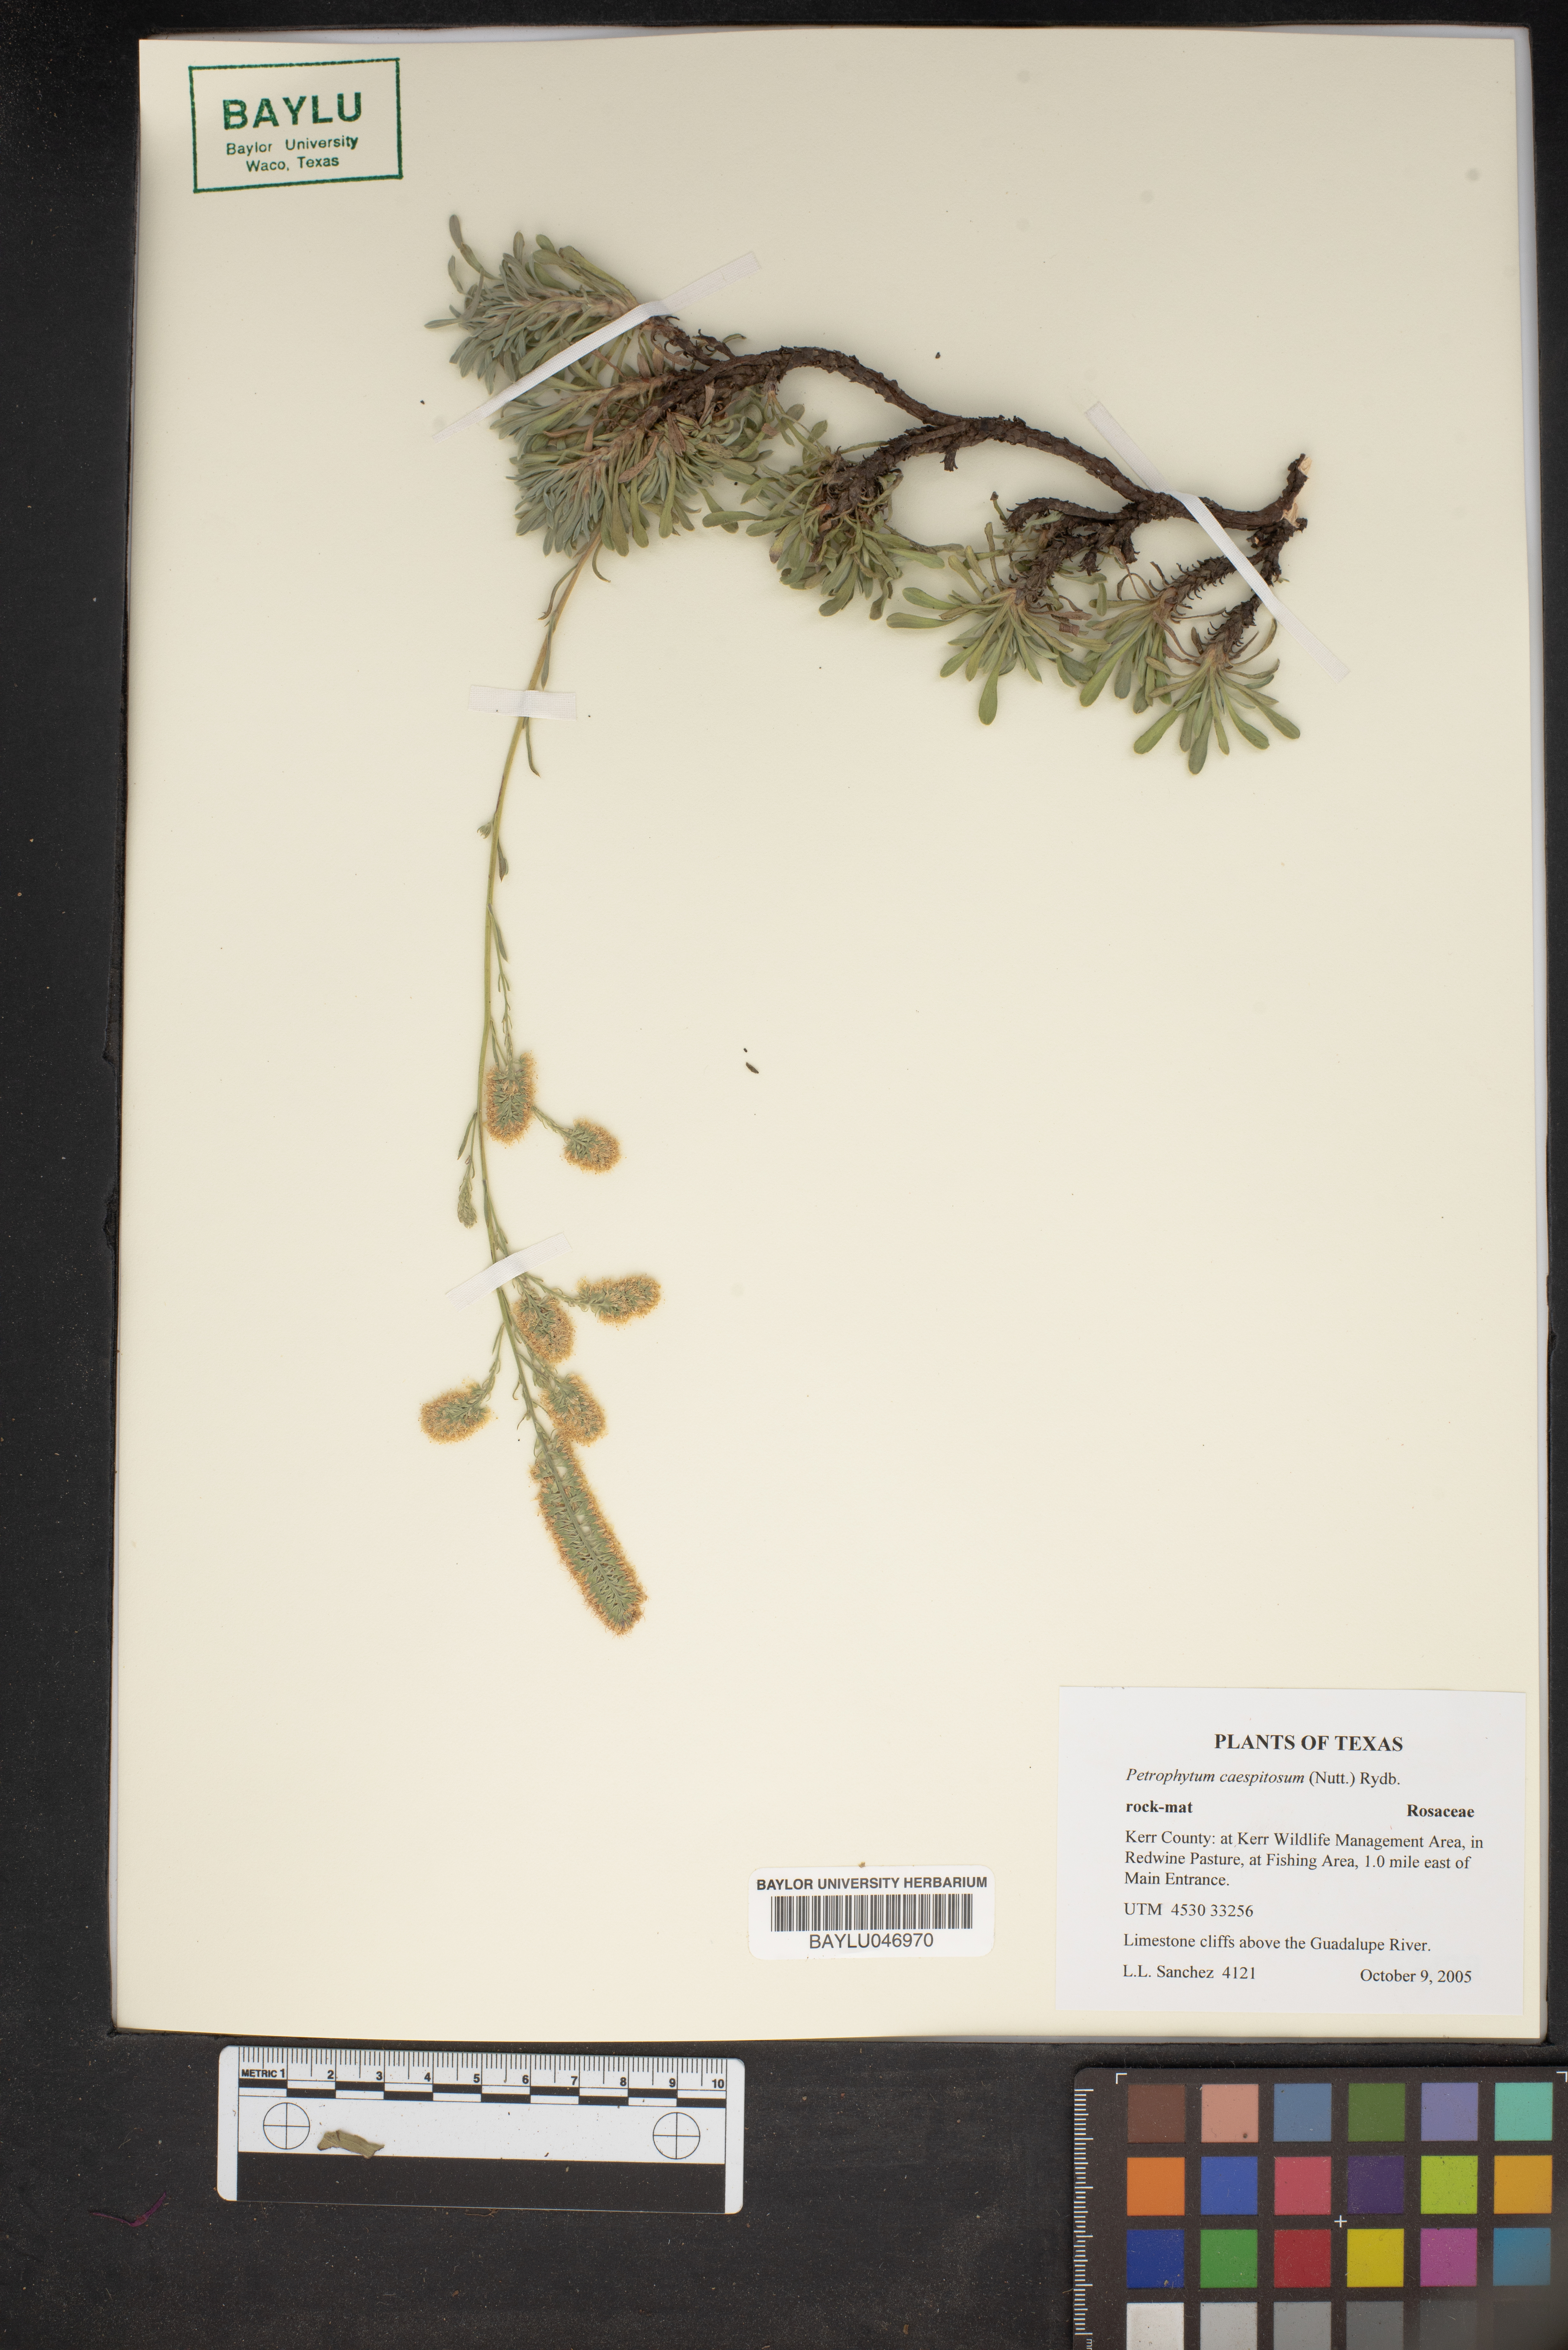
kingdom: Plantae
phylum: Tracheophyta
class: Magnoliopsida
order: Rosales
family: Rosaceae
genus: Petrophytum
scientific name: Petrophytum caespitosum
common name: Mat rockspirea
